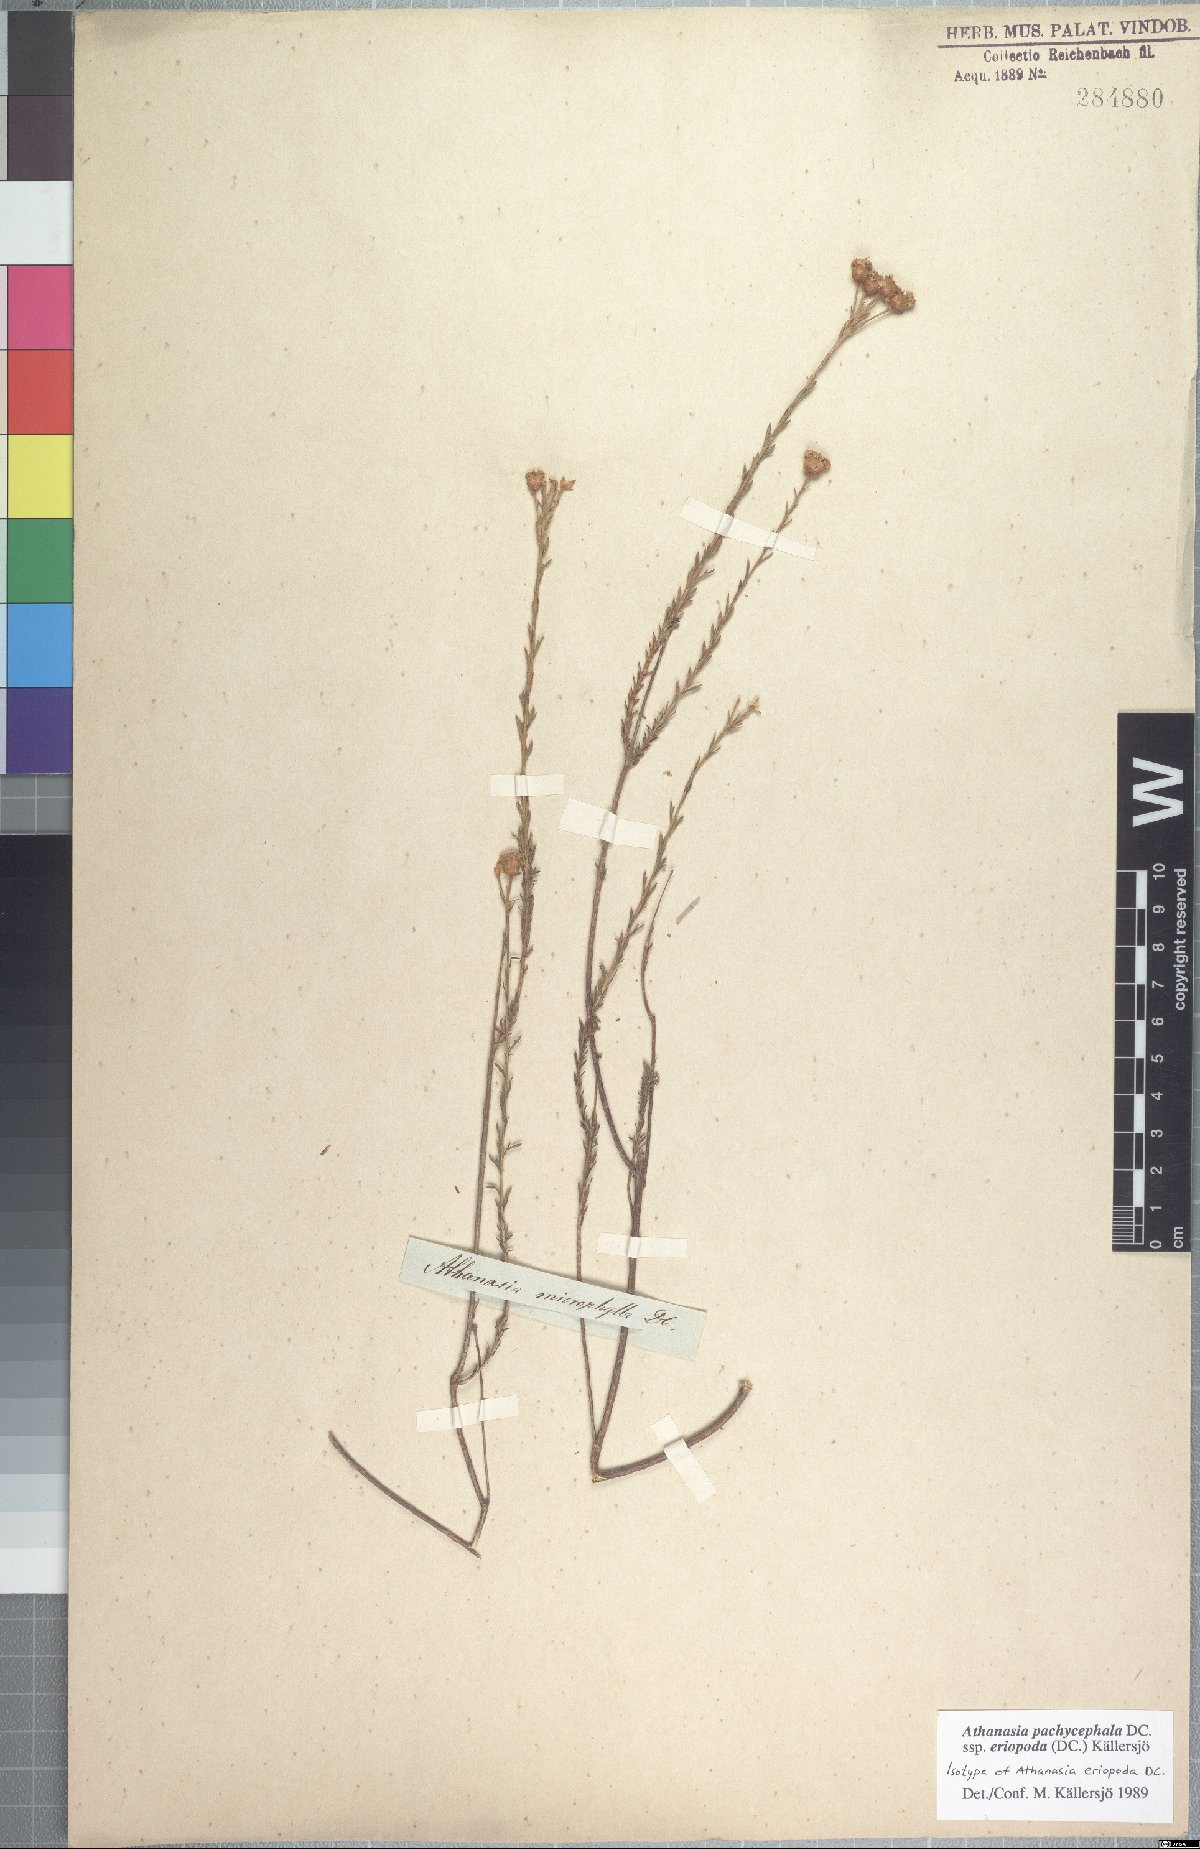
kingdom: Plantae
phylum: Tracheophyta
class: Magnoliopsida
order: Asterales
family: Asteraceae
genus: Athanasia
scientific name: Athanasia pachycephala
